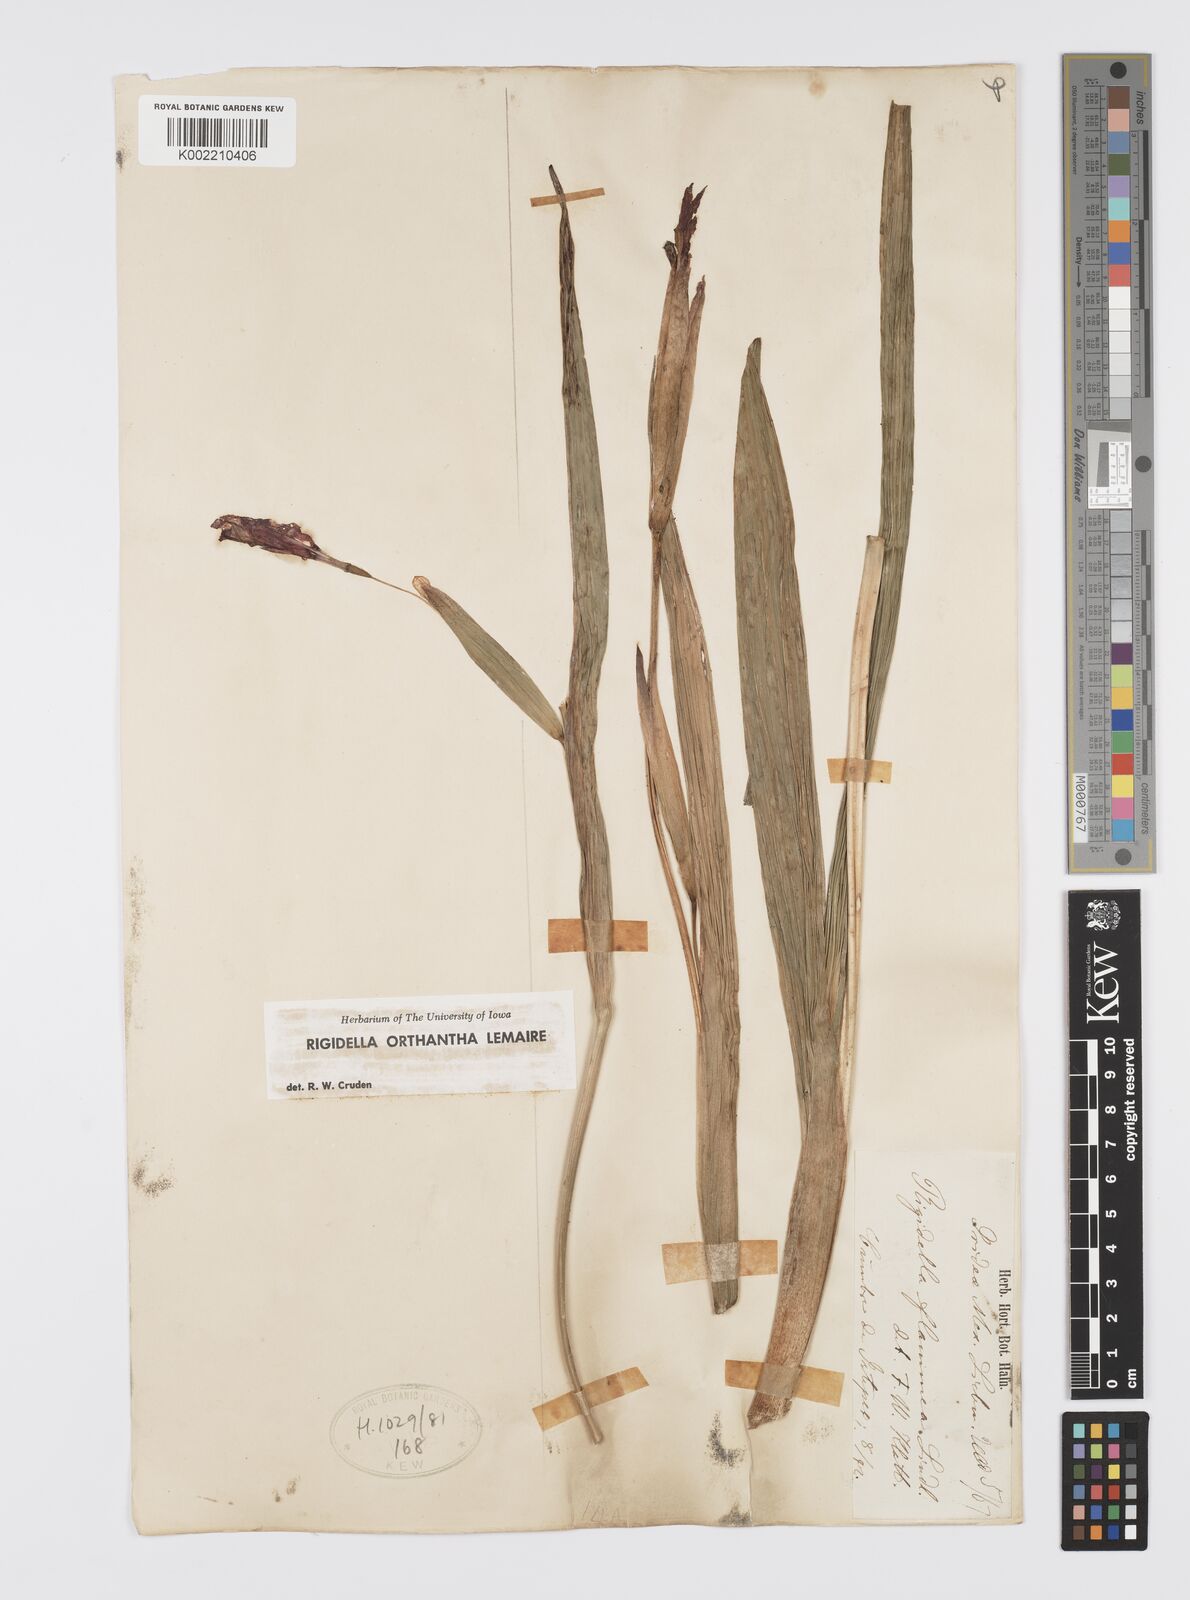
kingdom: Plantae
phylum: Tracheophyta
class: Liliopsida
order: Asparagales
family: Iridaceae
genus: Tigridia
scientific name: Tigridia orthantha
